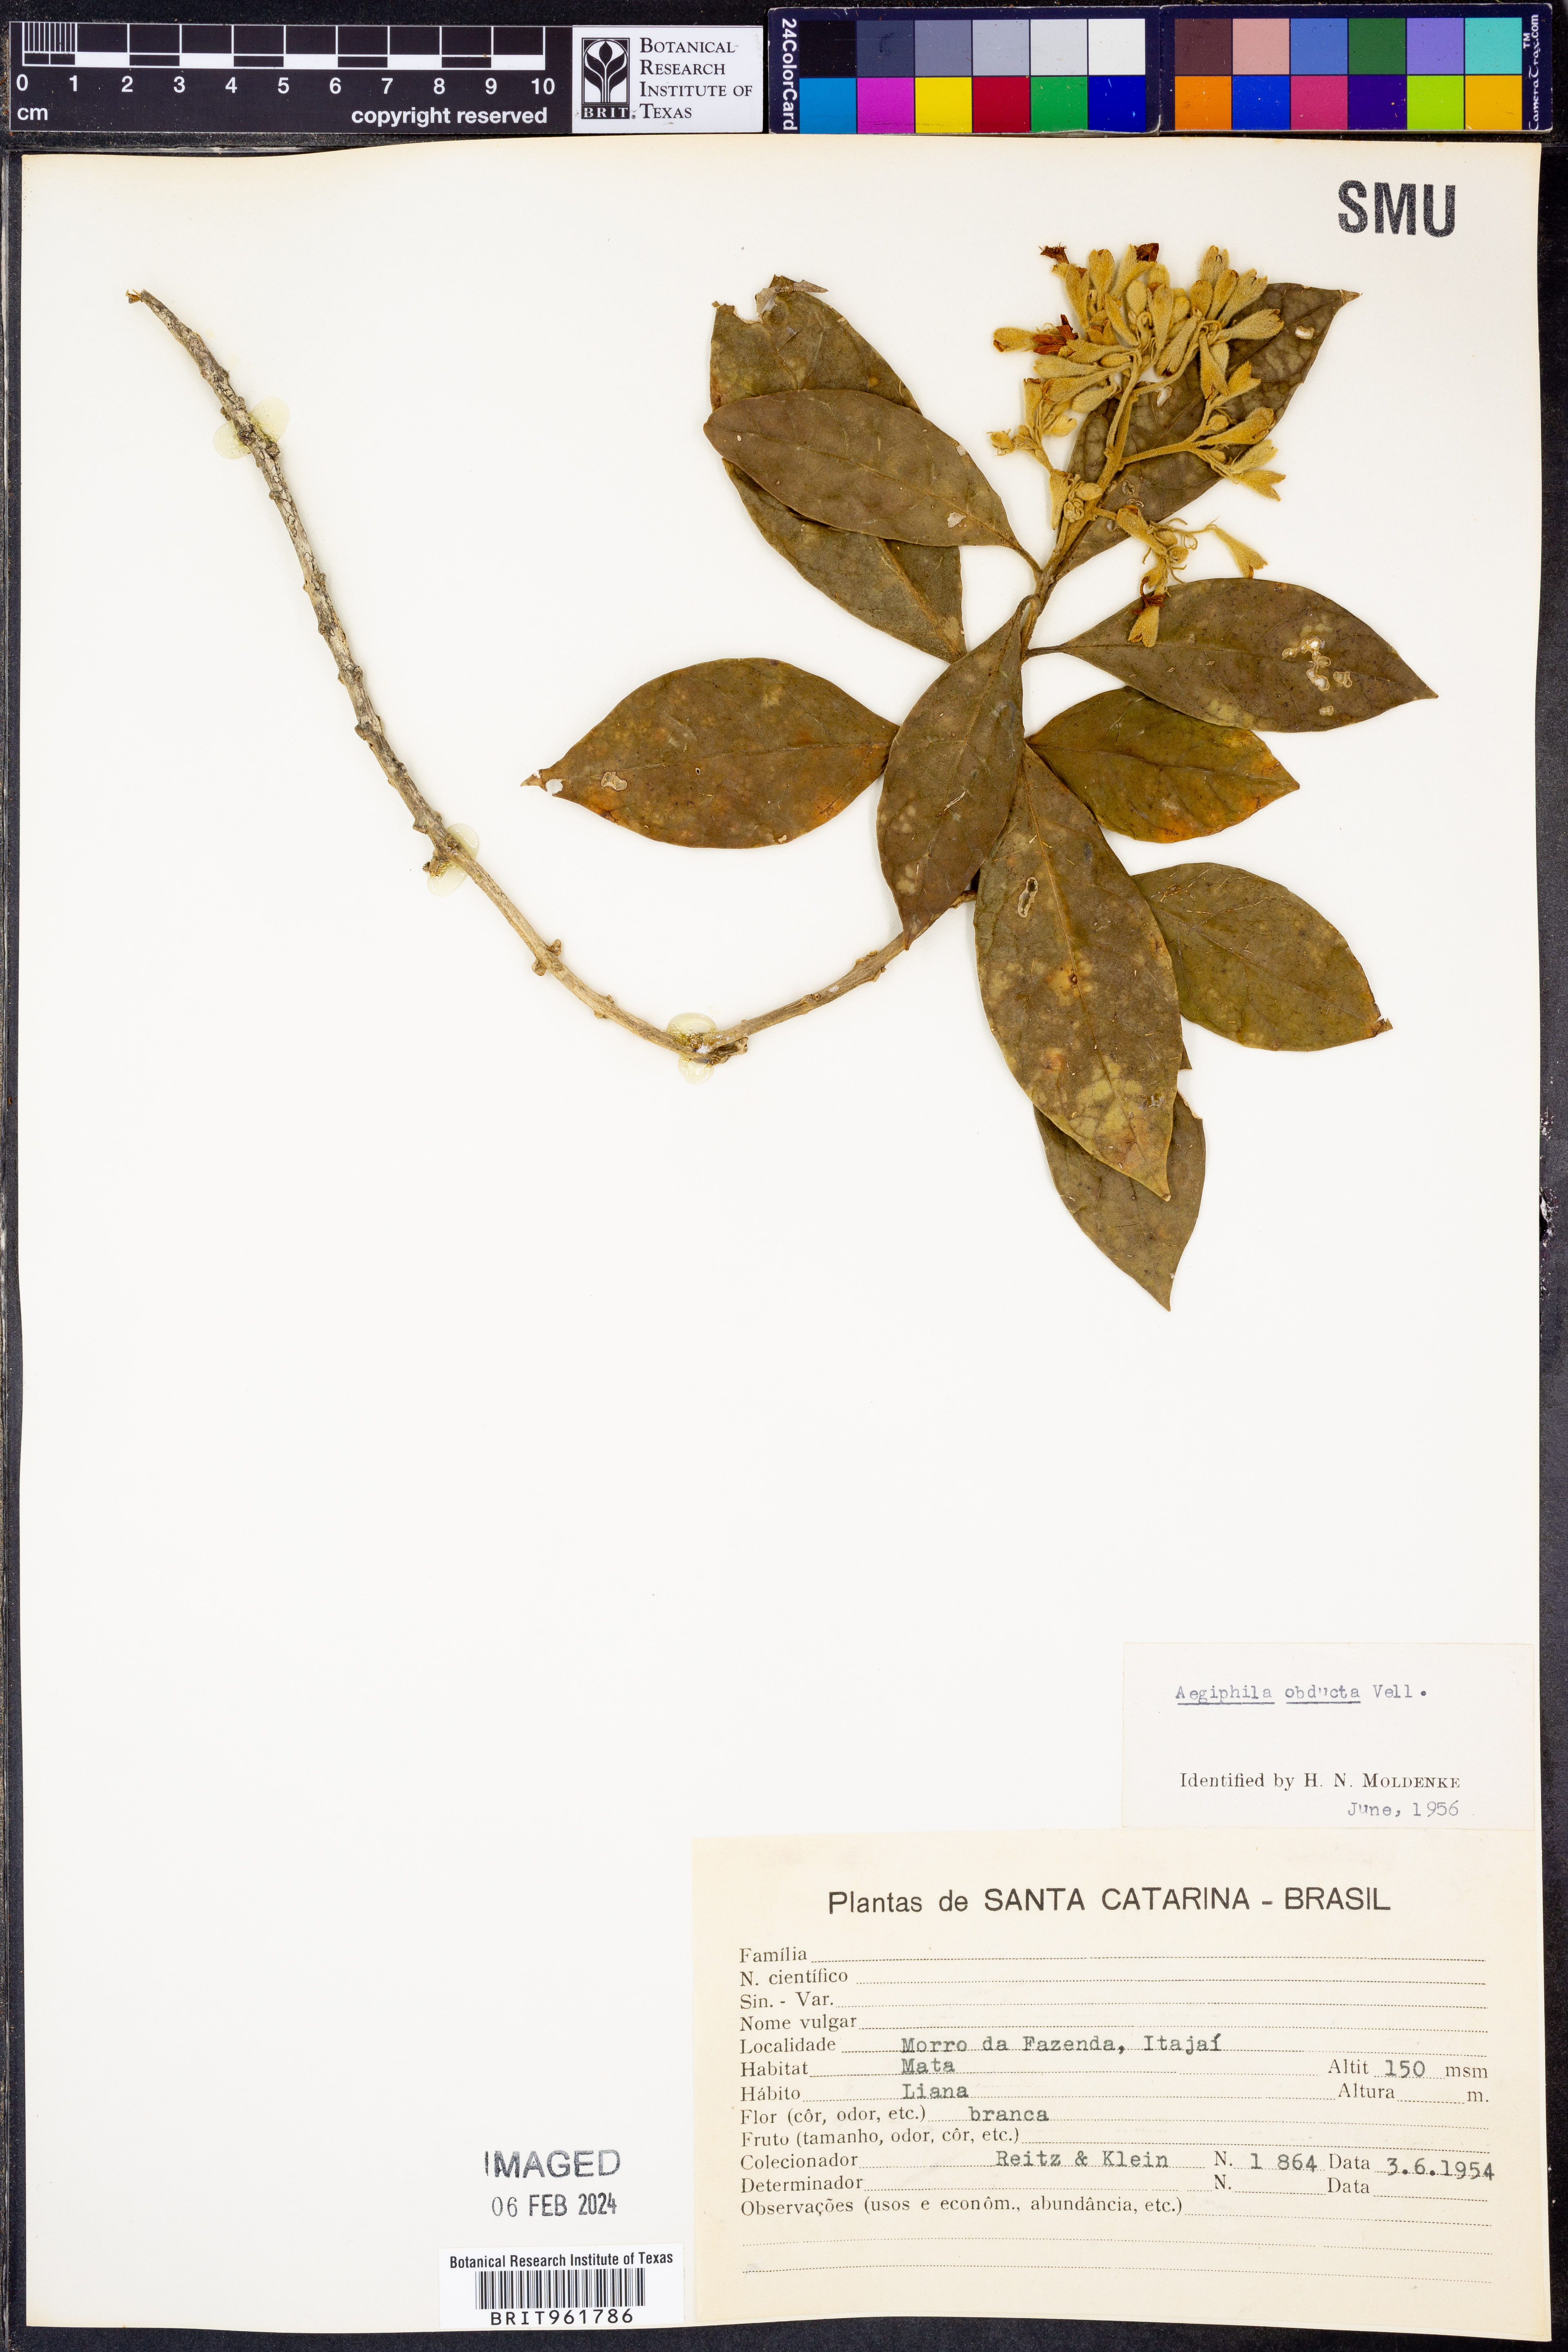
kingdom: Plantae
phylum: Tracheophyta
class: Magnoliopsida
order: Lamiales
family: Lamiaceae
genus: Aegiphila
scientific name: Aegiphila
